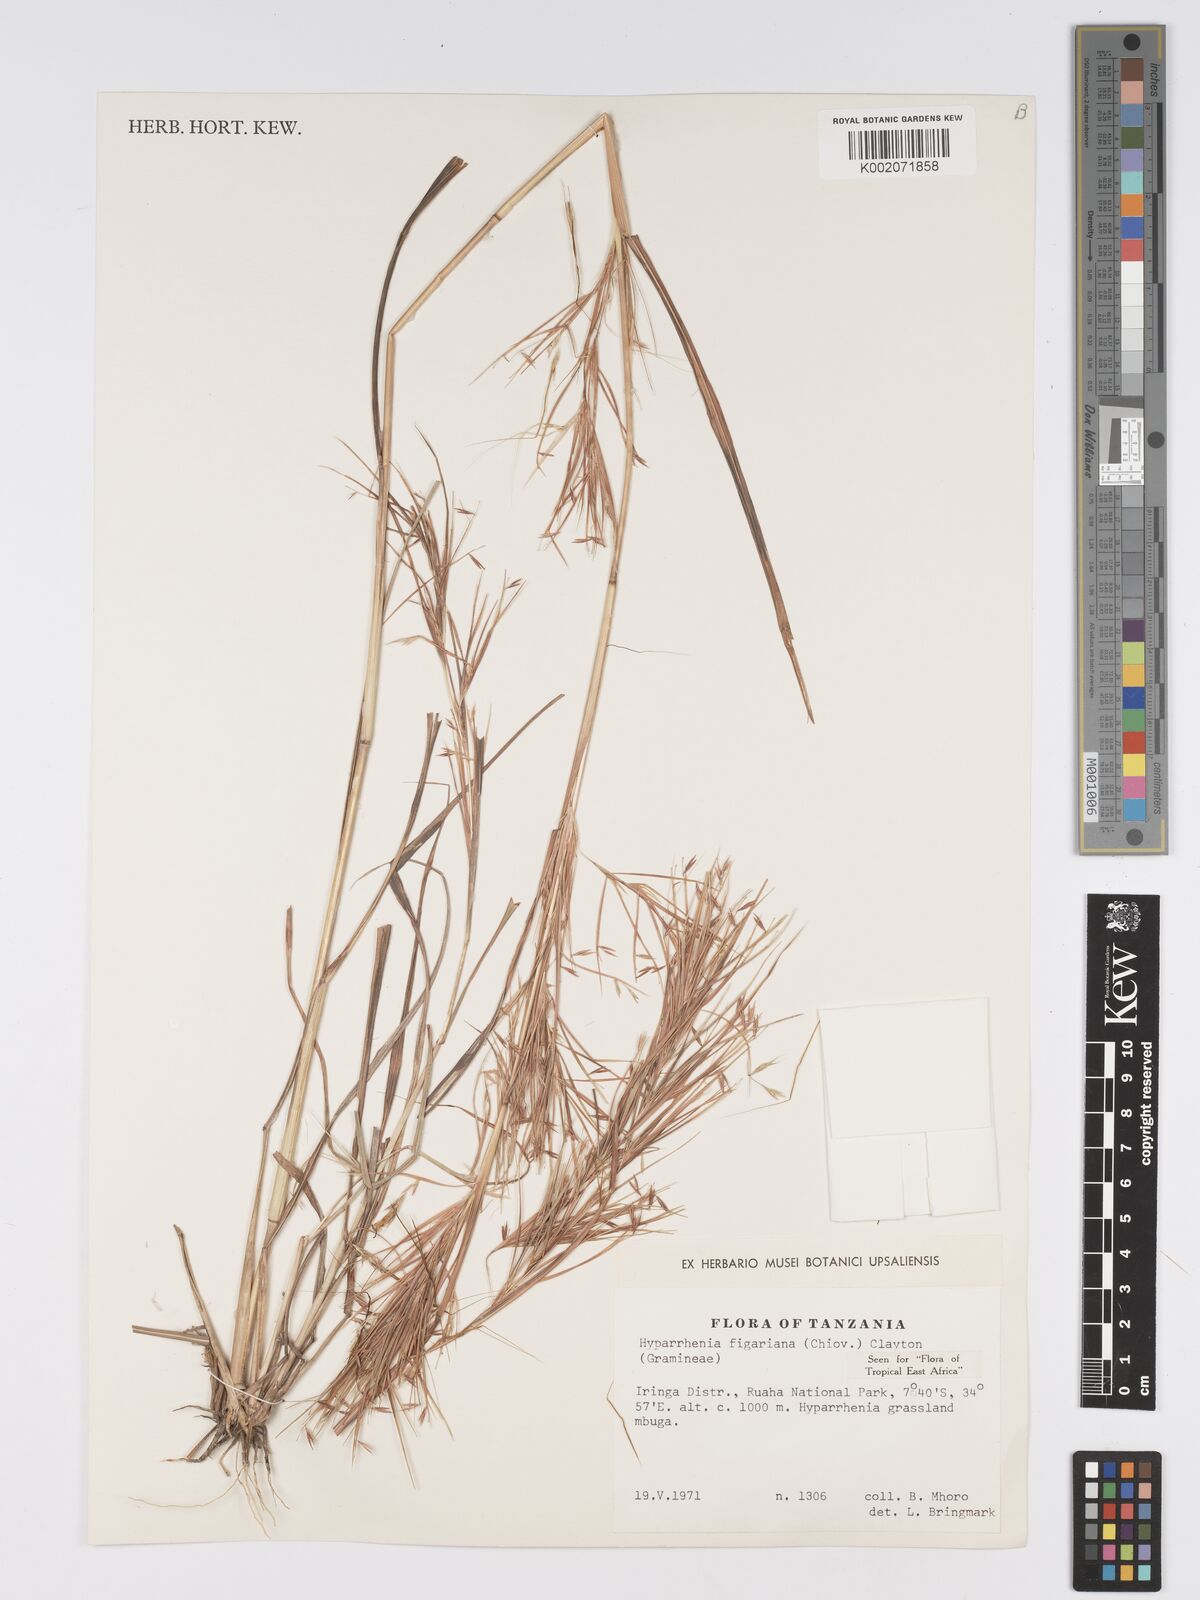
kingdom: Plantae
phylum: Tracheophyta
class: Liliopsida
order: Poales
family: Poaceae
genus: Hyparrhenia
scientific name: Hyparrhenia figariana
